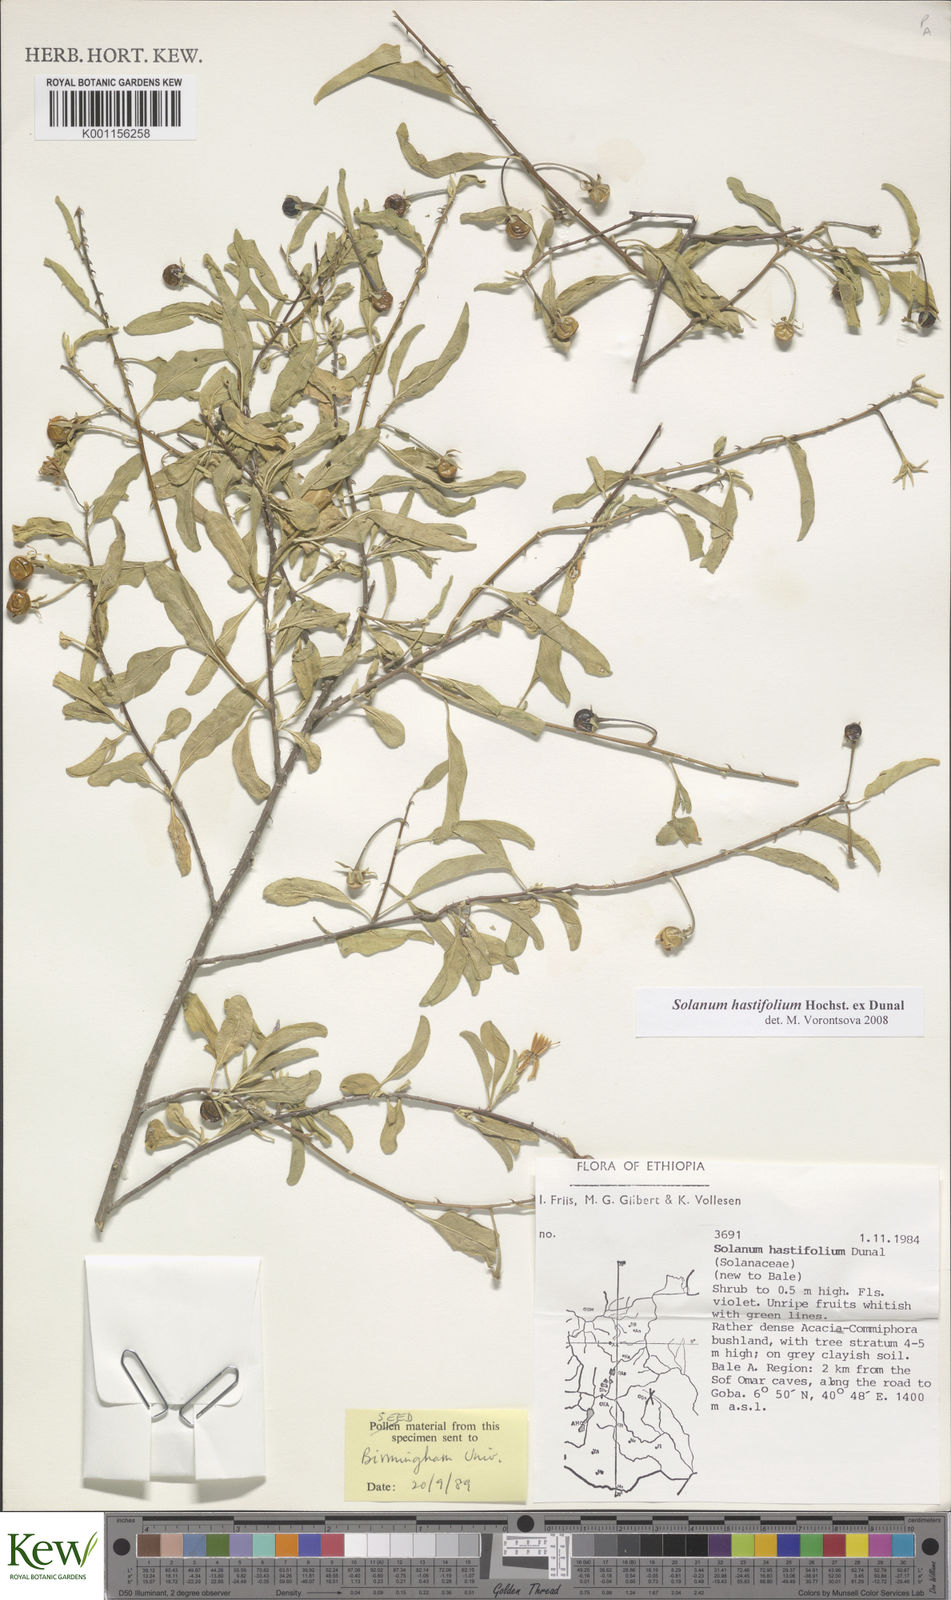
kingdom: Plantae
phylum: Tracheophyta
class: Magnoliopsida
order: Solanales
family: Solanaceae
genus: Solanum
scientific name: Solanum hastifolium
